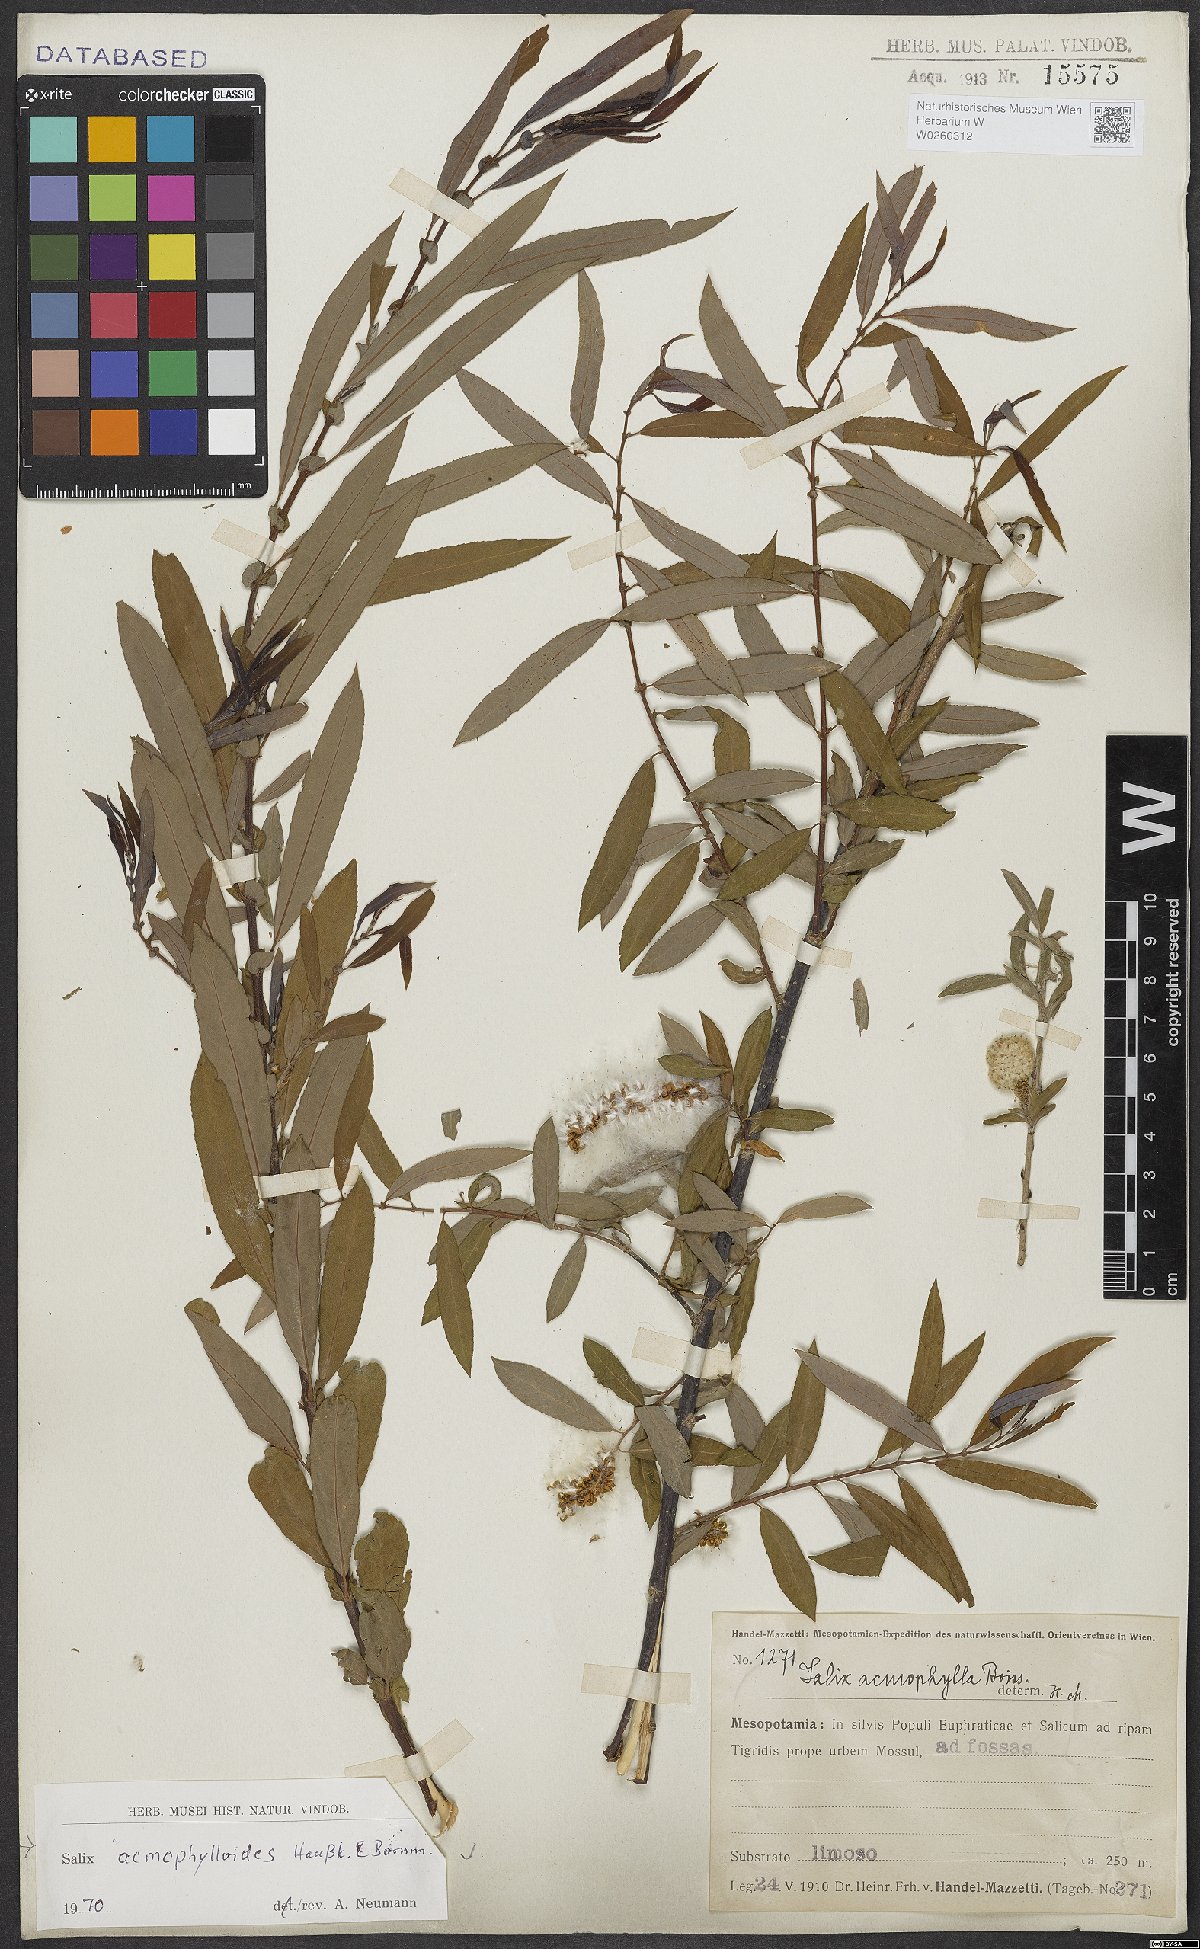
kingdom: Plantae
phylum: Tracheophyta
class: Magnoliopsida
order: Malpighiales
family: Salicaceae
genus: Salix
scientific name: Salix
